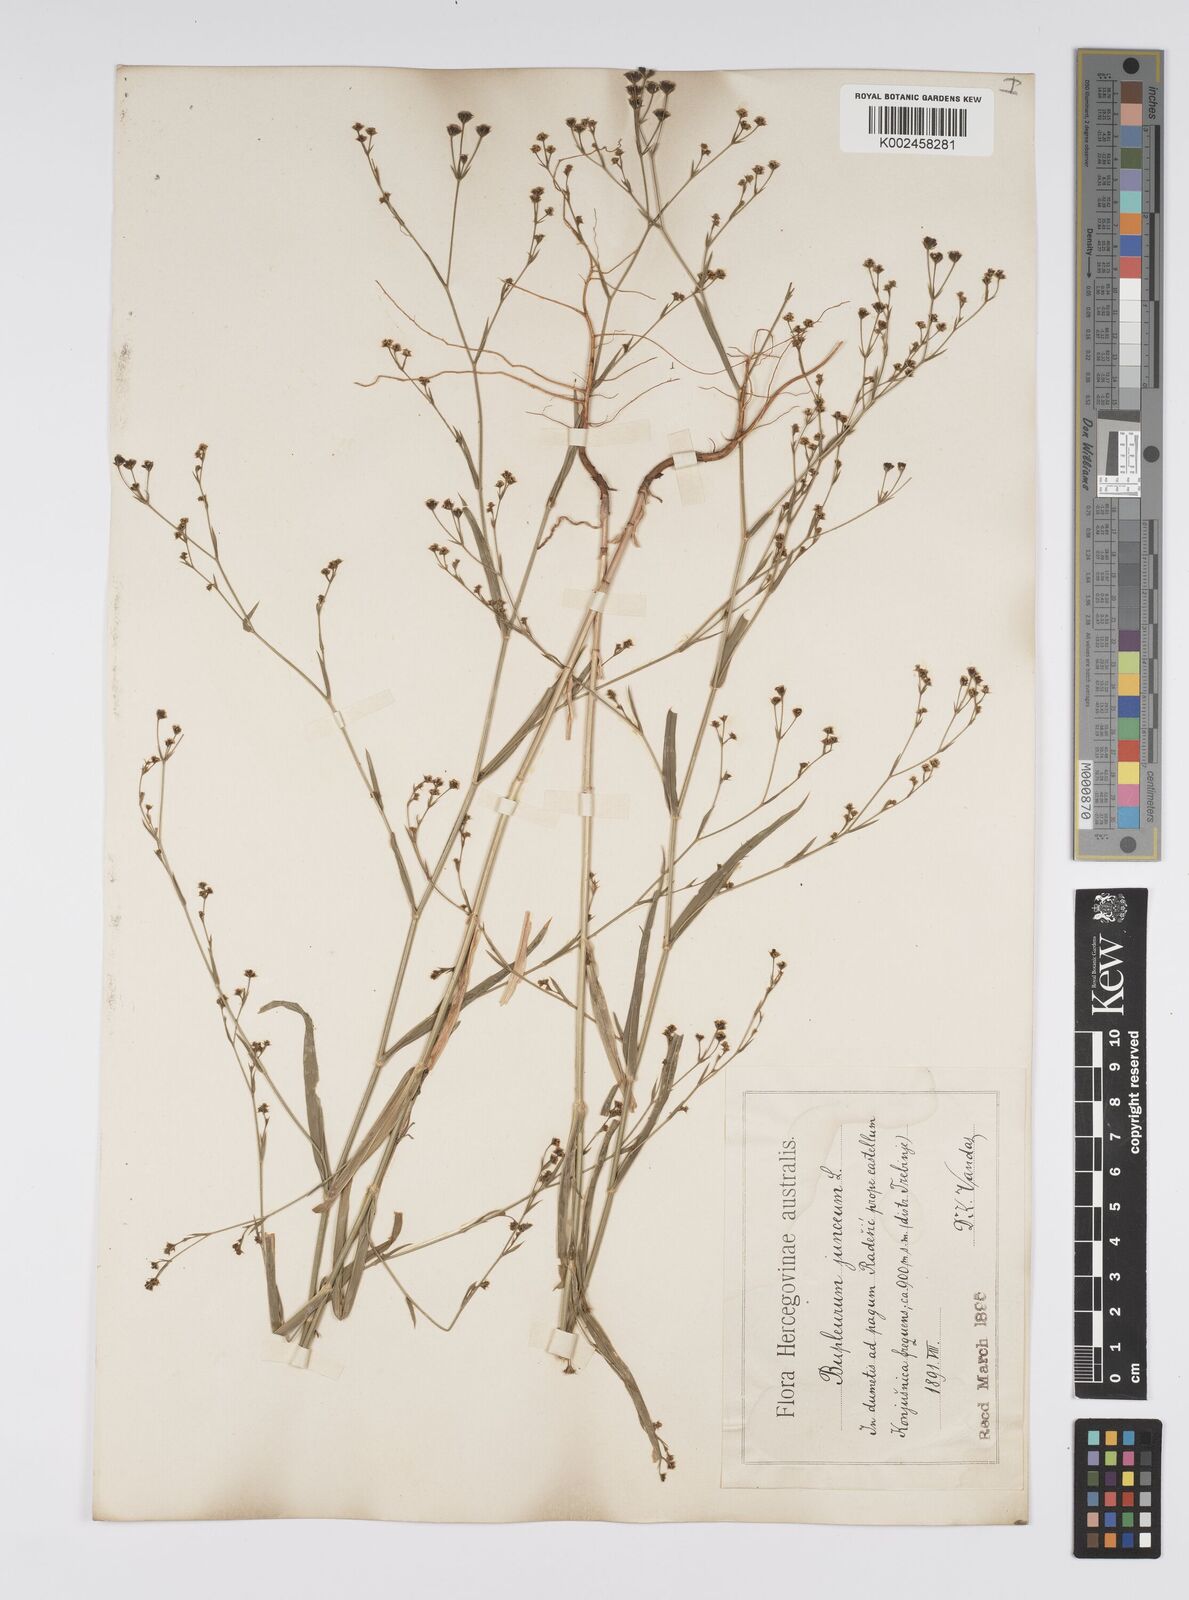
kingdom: Plantae
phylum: Tracheophyta
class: Magnoliopsida
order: Apiales
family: Apiaceae
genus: Bupleurum
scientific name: Bupleurum praealtum
